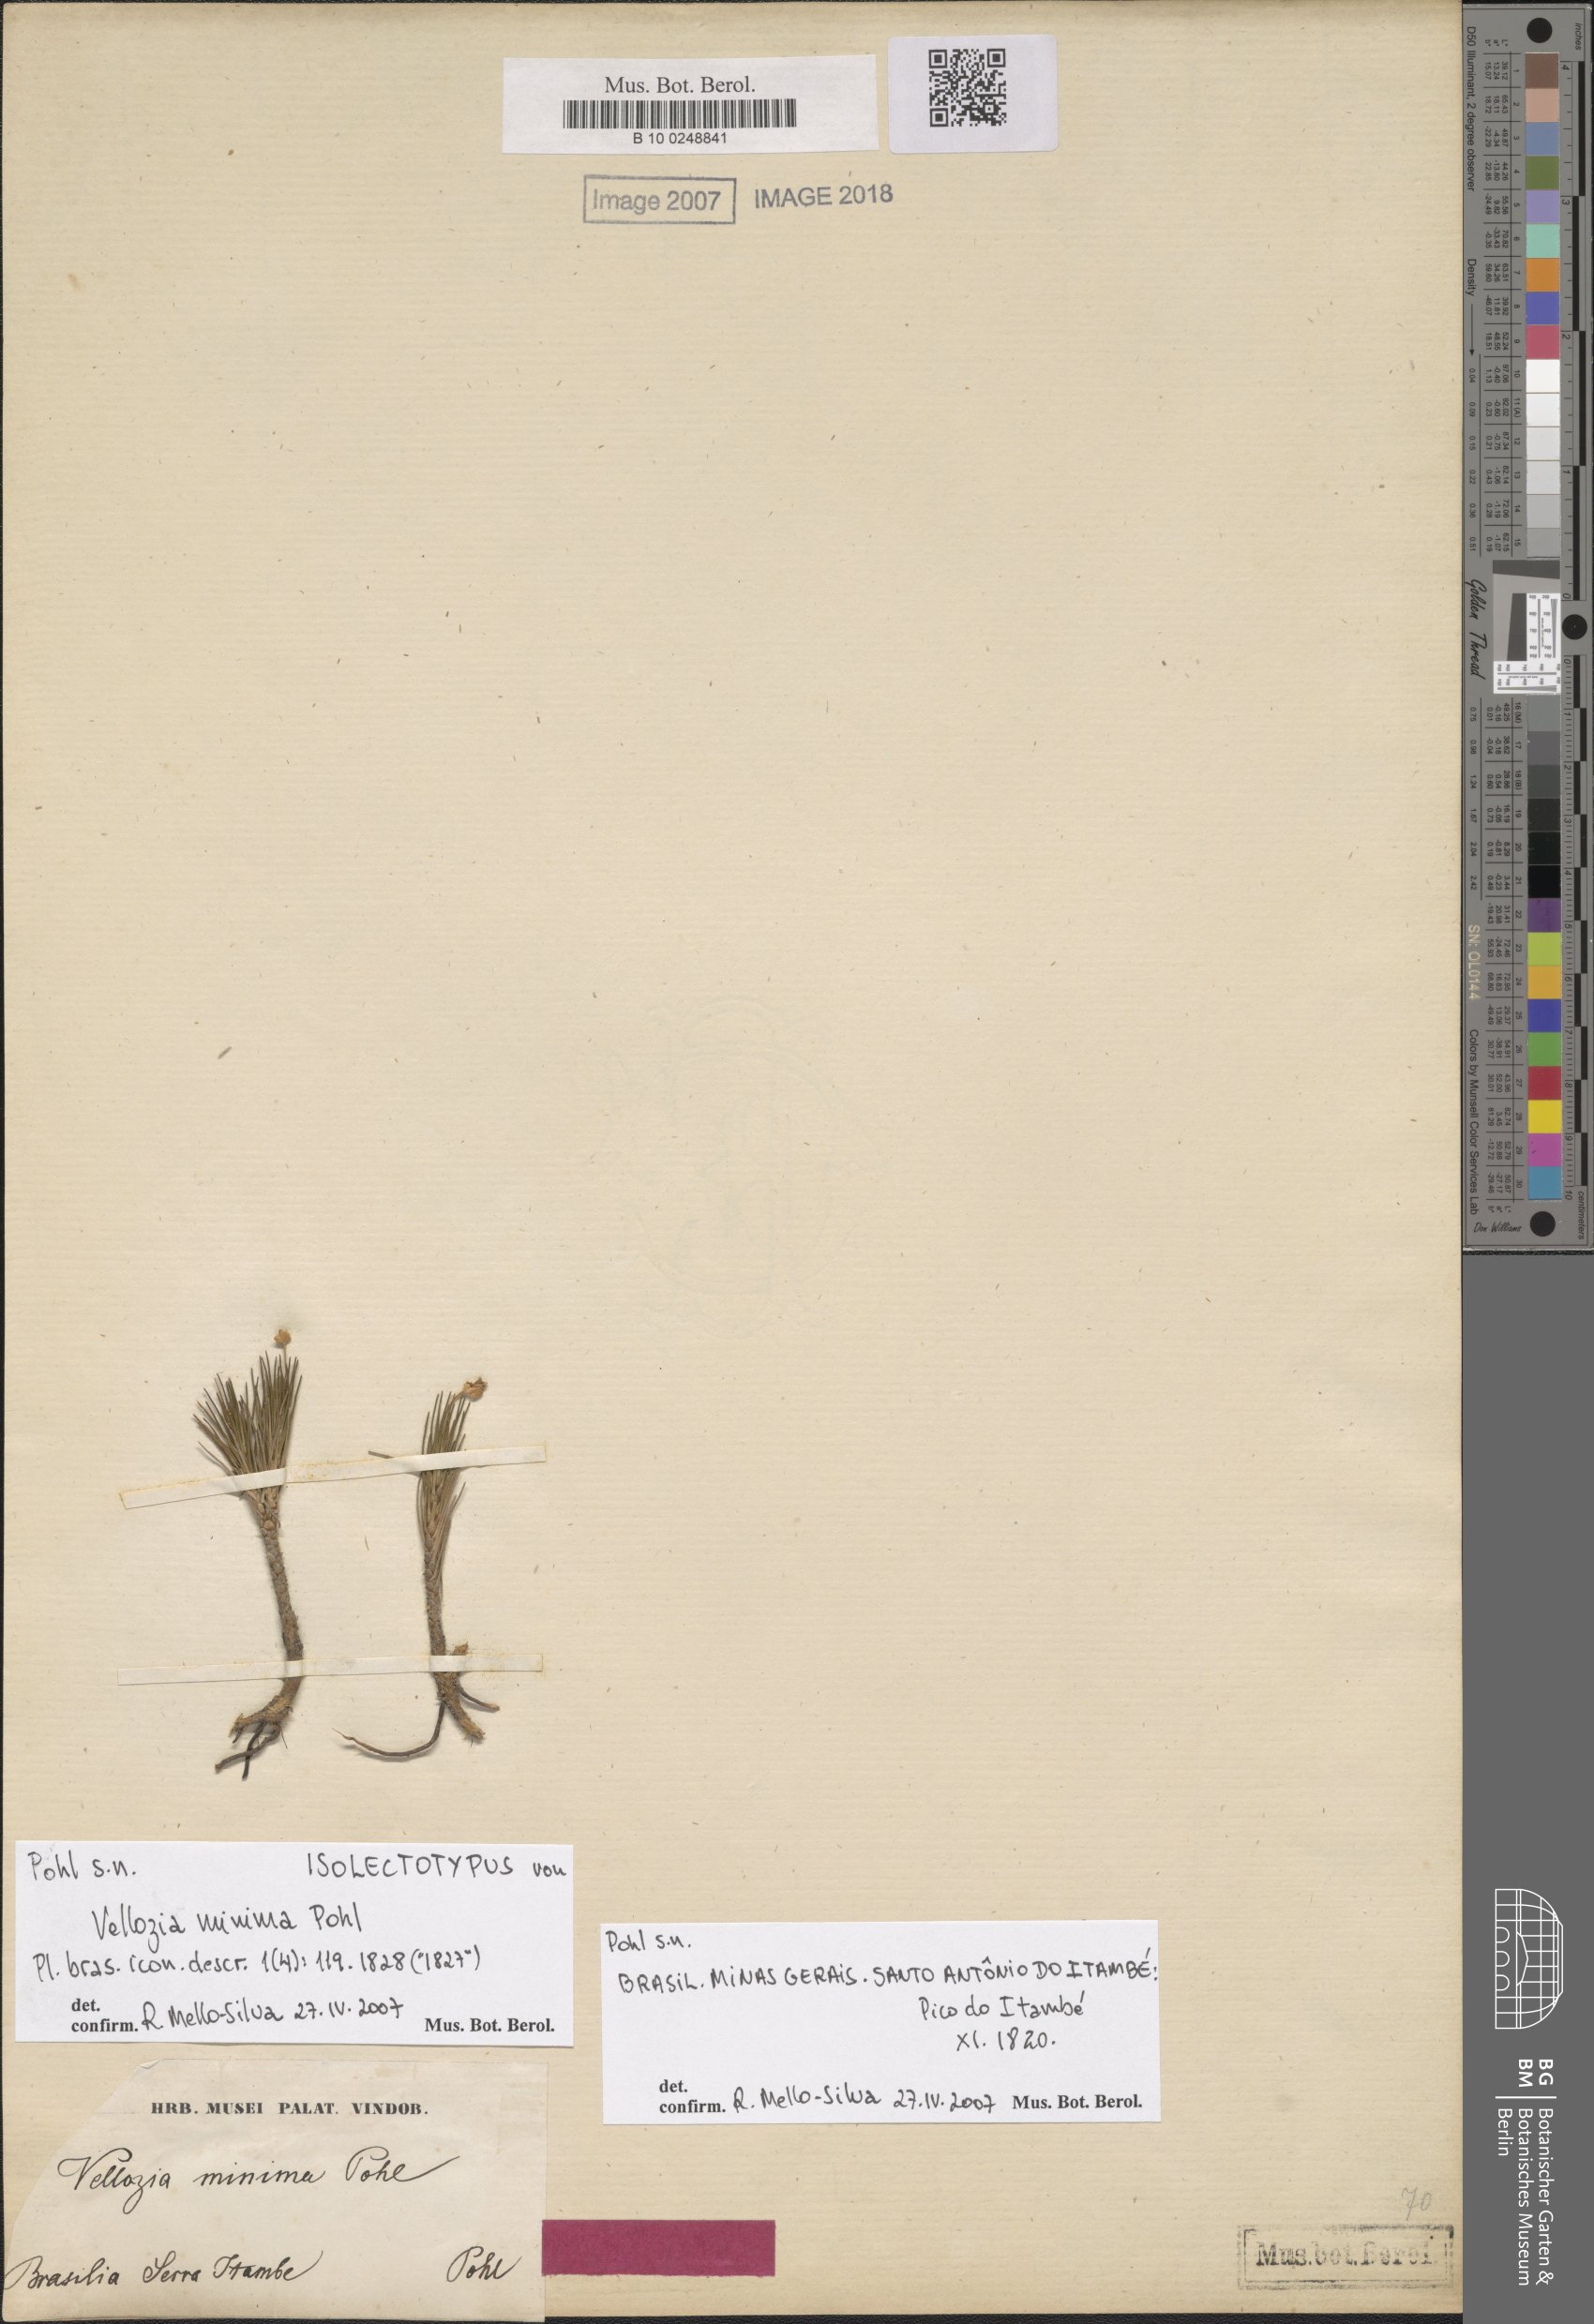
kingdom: Plantae
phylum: Tracheophyta
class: Liliopsida
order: Pandanales
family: Velloziaceae
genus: Vellozia
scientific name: Vellozia minima
